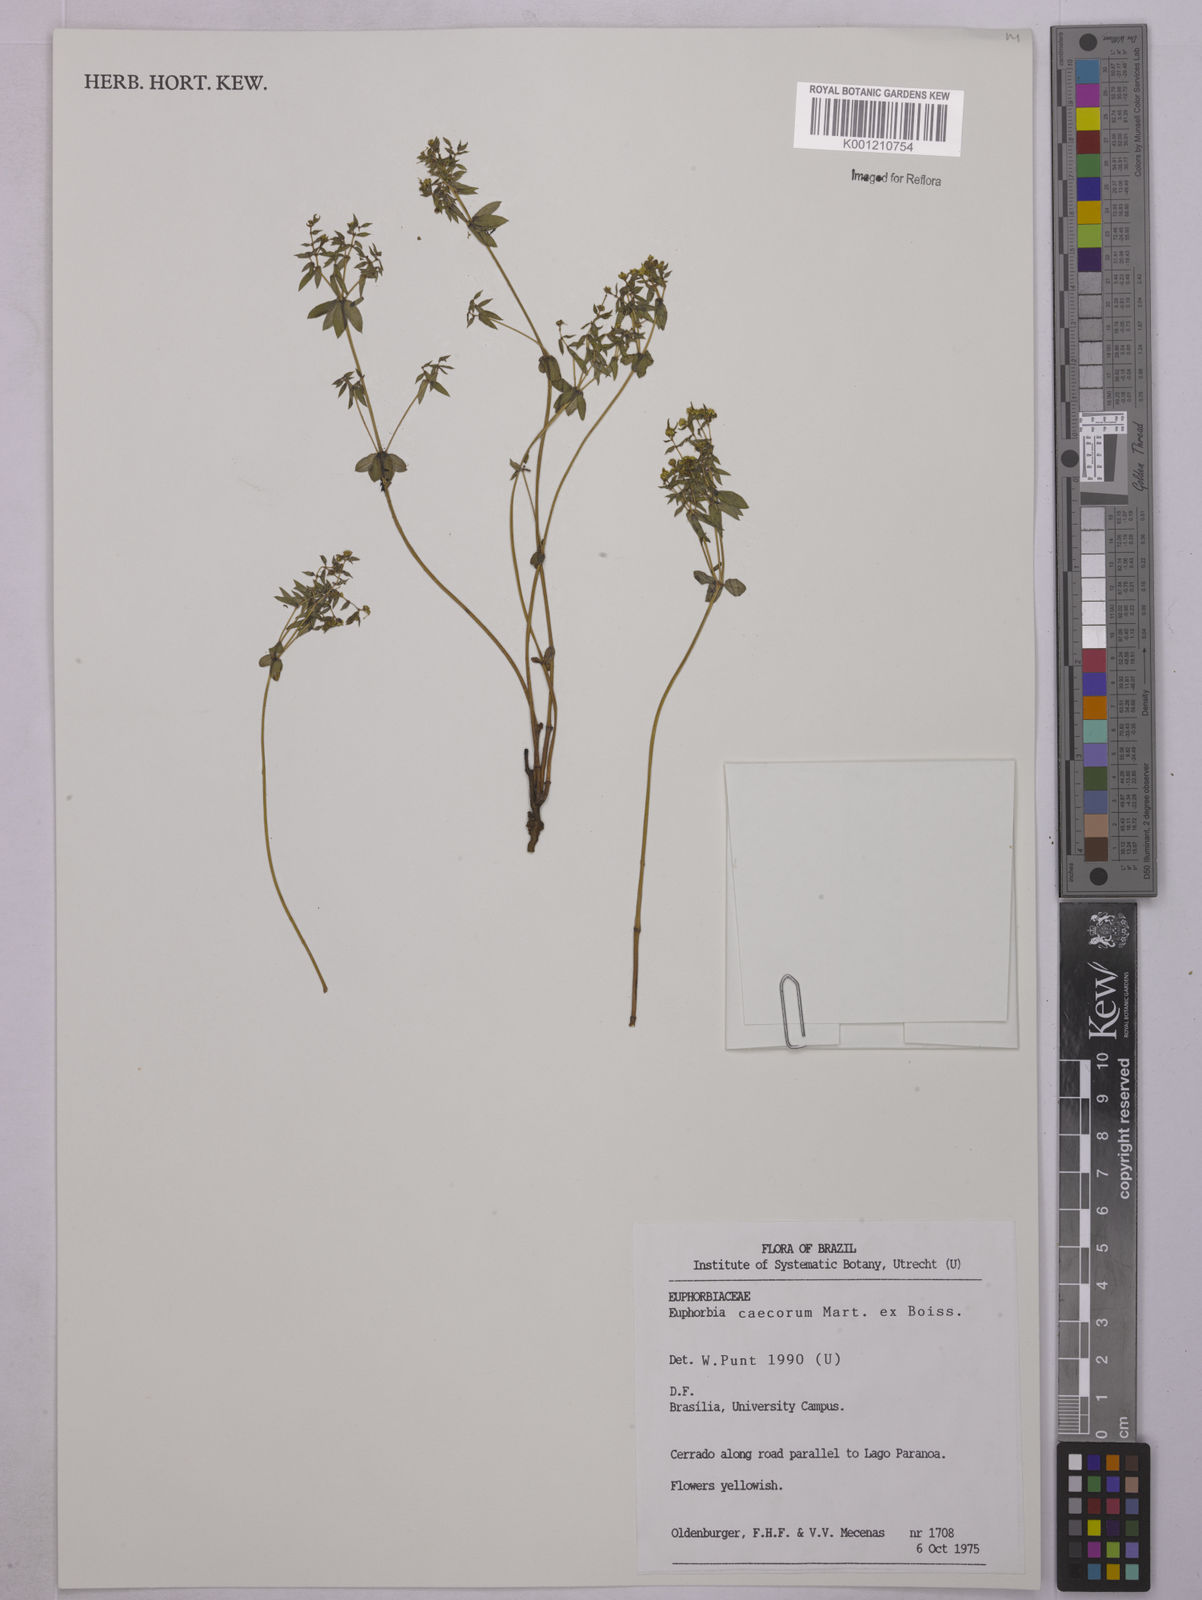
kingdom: Plantae
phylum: Tracheophyta
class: Magnoliopsida
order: Malpighiales
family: Euphorbiaceae
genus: Euphorbia
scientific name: Euphorbia potentilloides
